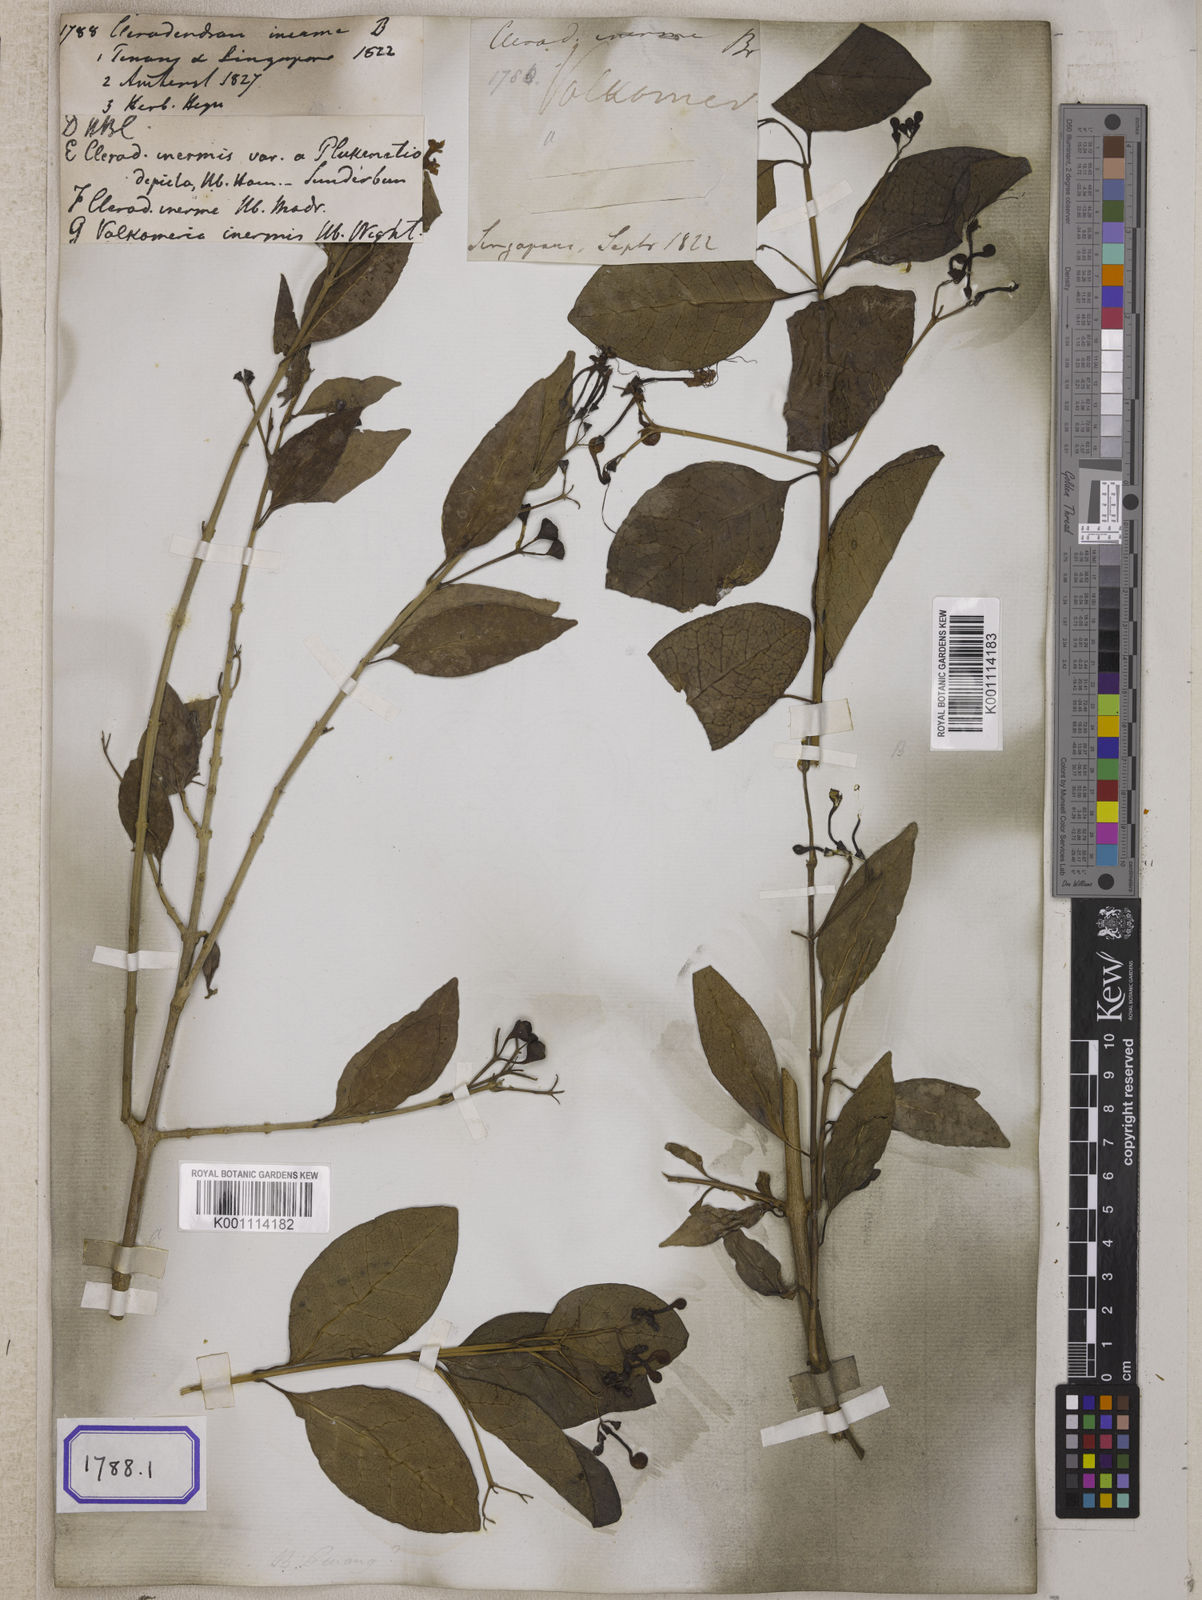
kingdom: Plantae
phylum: Tracheophyta
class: Magnoliopsida
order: Lamiales
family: Lamiaceae
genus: Clerodendrum
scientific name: Clerodendrum
